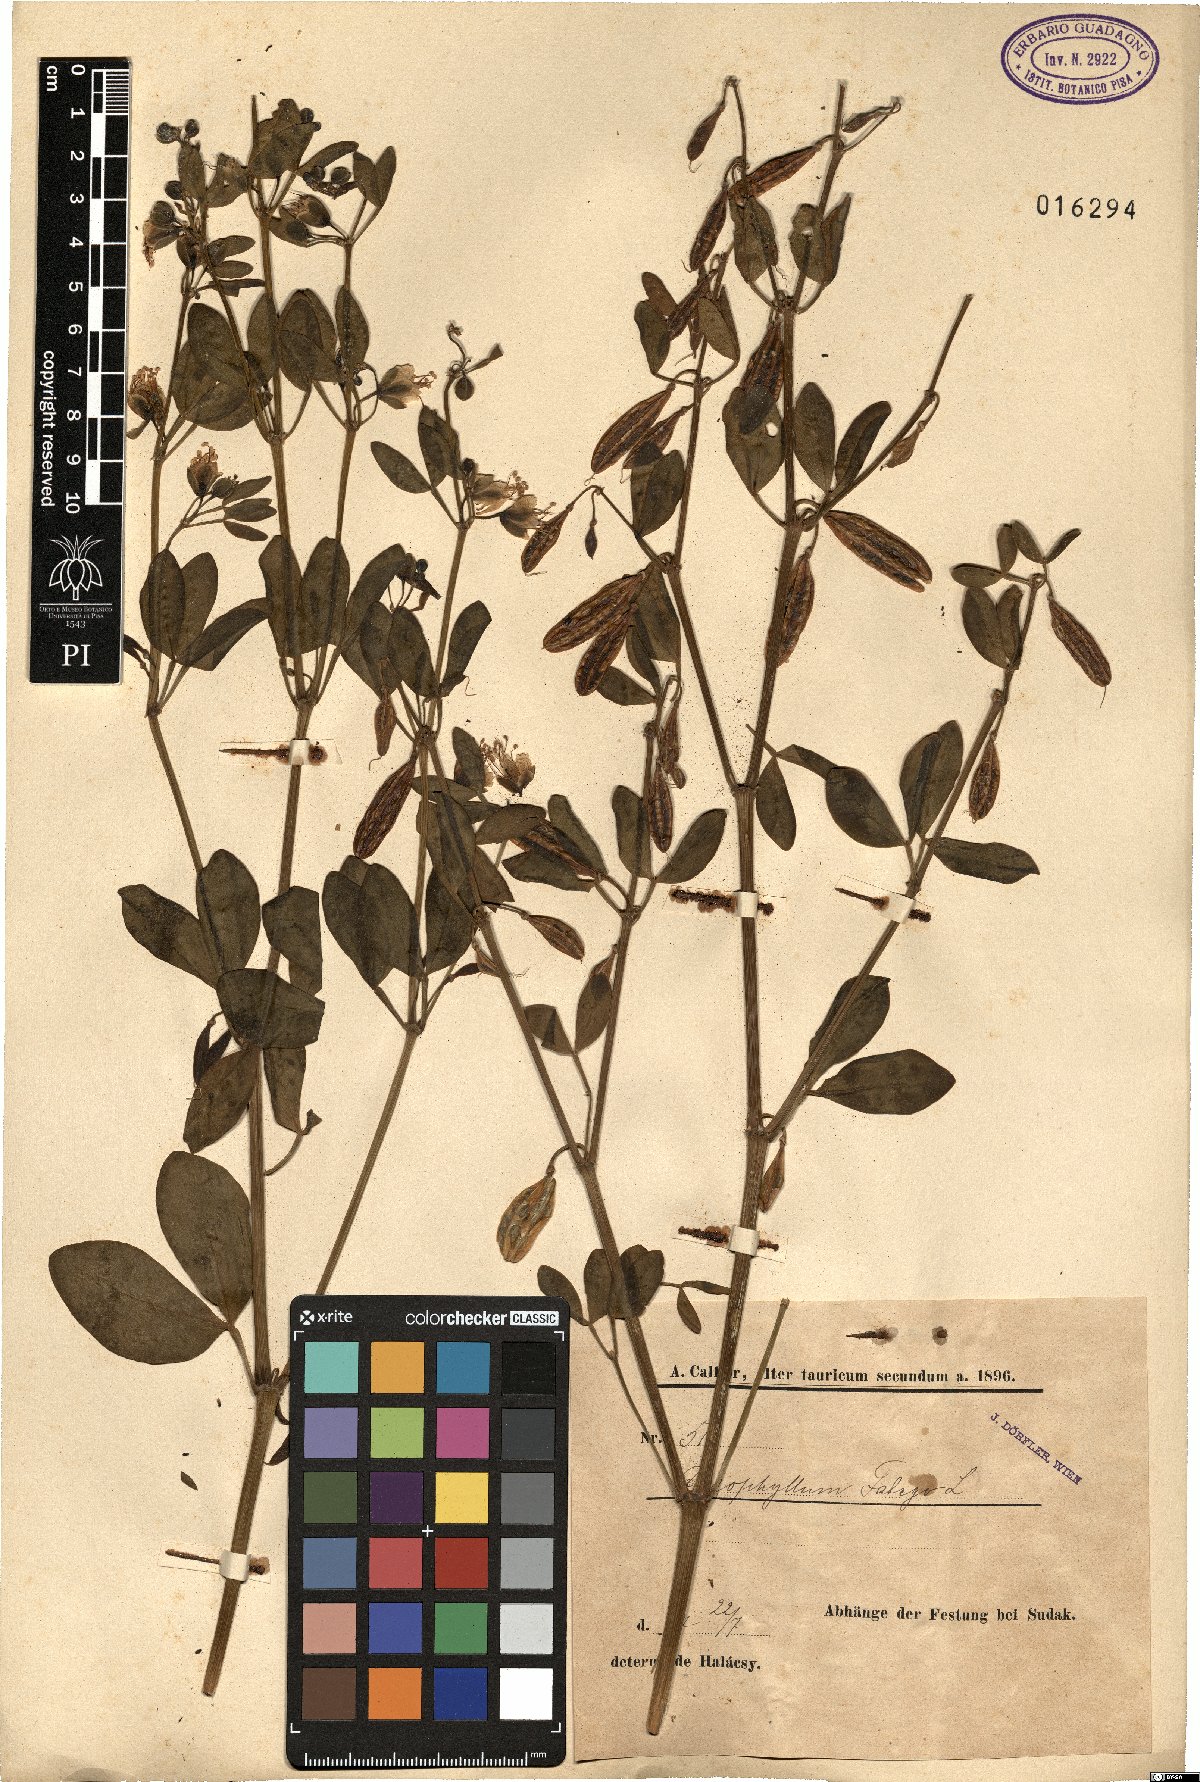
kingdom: Plantae
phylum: Tracheophyta
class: Magnoliopsida
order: Zygophyllales
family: Zygophyllaceae
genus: Zygophyllum
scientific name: Zygophyllum fabago
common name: Syrian beancaper
